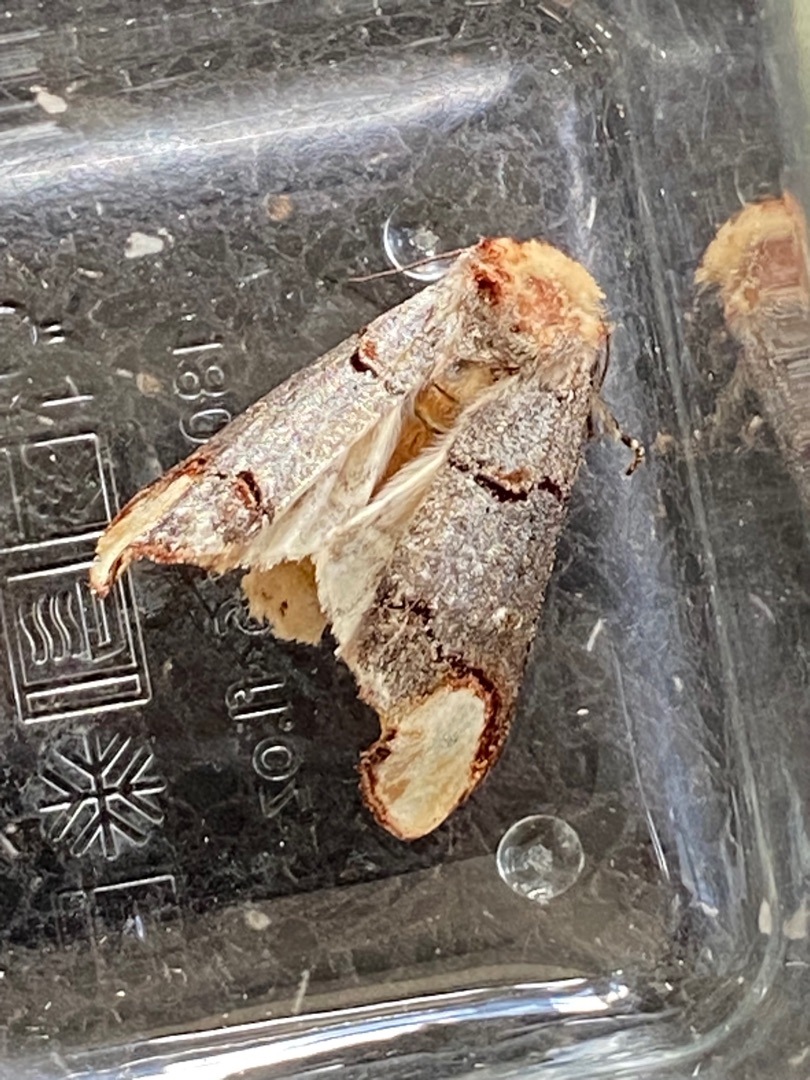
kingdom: Animalia
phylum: Arthropoda
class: Insecta
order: Lepidoptera
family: Notodontidae
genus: Phalera
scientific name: Phalera bucephala
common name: Måneplet
